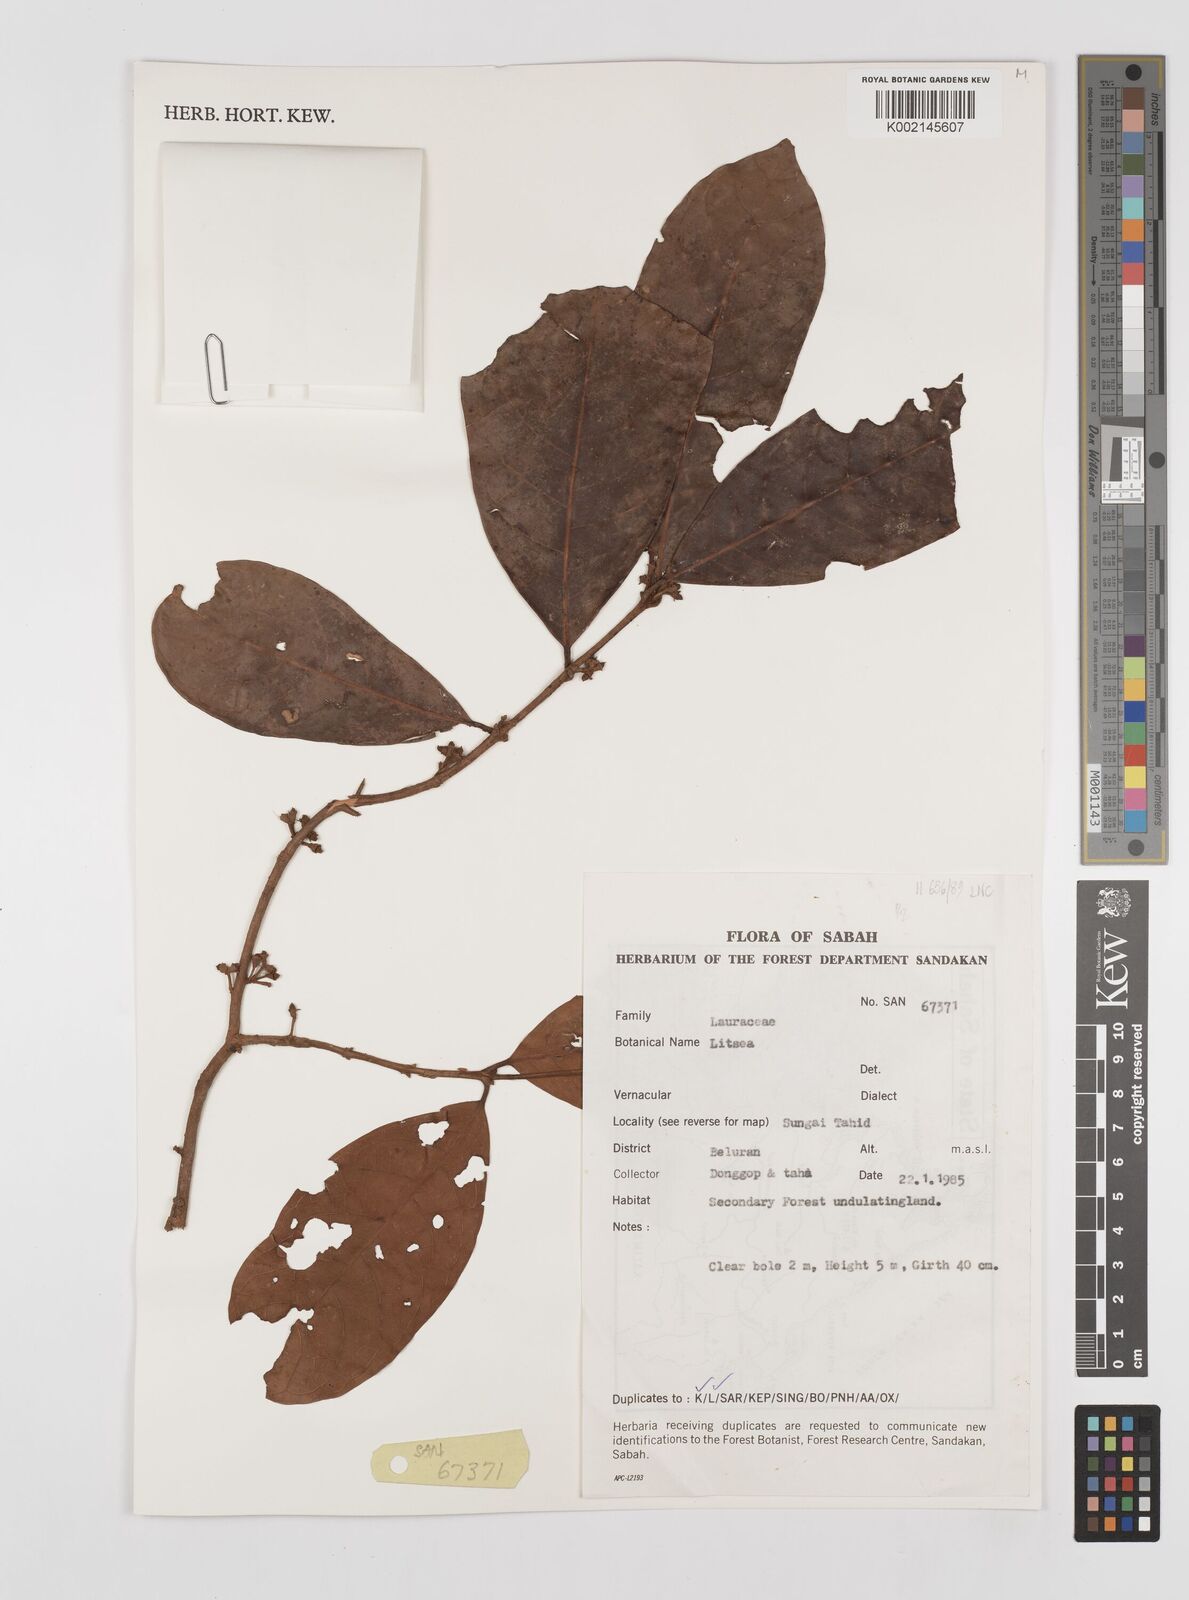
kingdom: Plantae
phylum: Tracheophyta
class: Magnoliopsida
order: Laurales
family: Lauraceae
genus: Litsea
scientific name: Litsea
